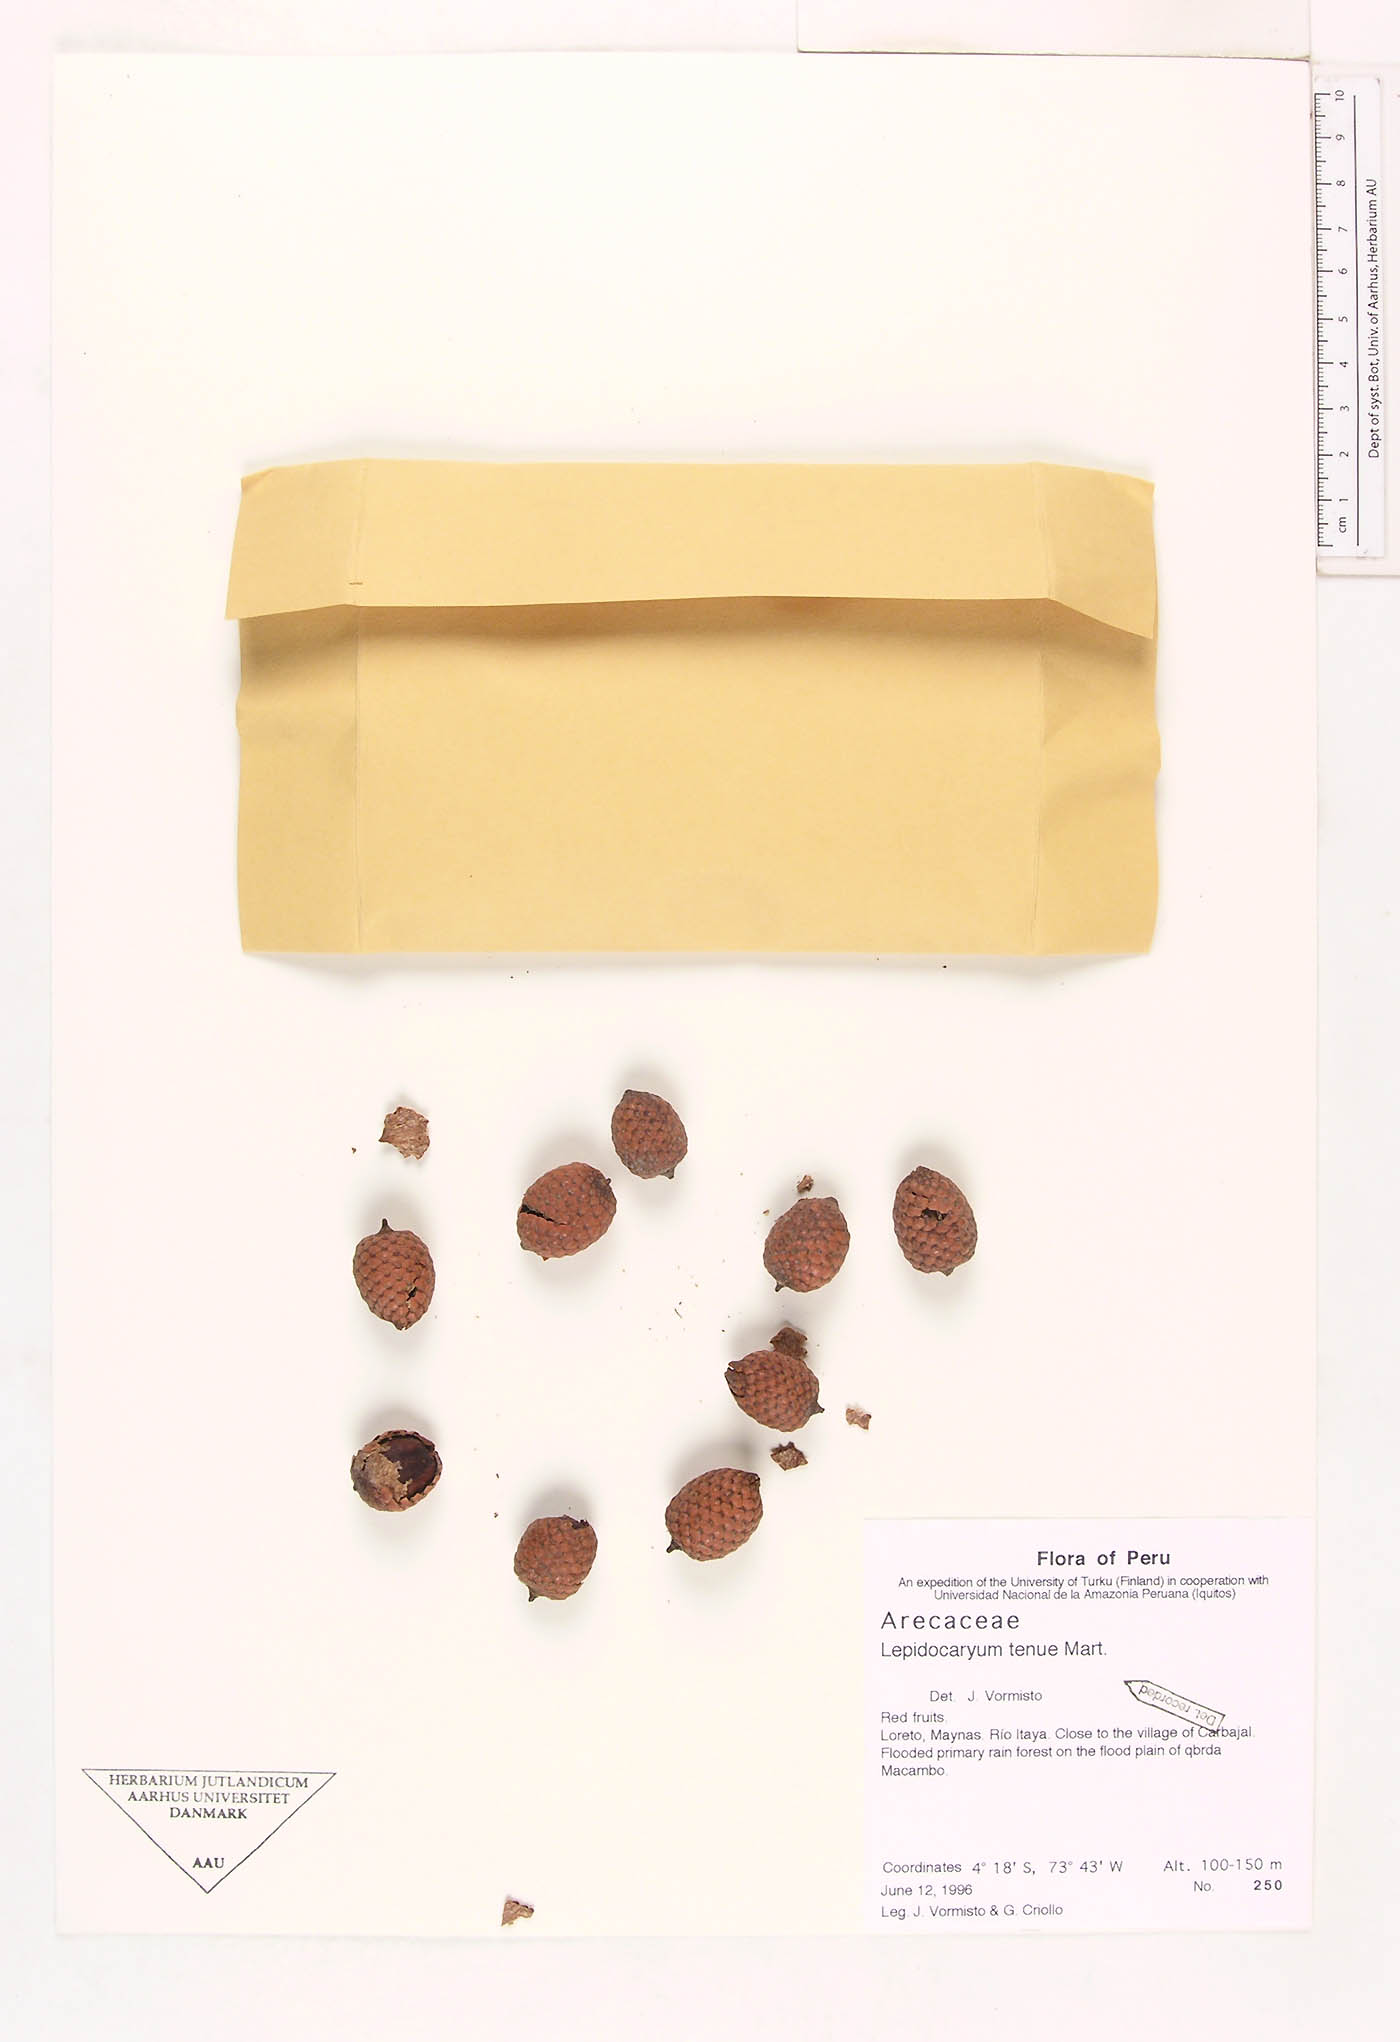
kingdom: Plantae
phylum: Tracheophyta
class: Liliopsida
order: Arecales
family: Arecaceae
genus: Lepidocaryum
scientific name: Lepidocaryum tenue
